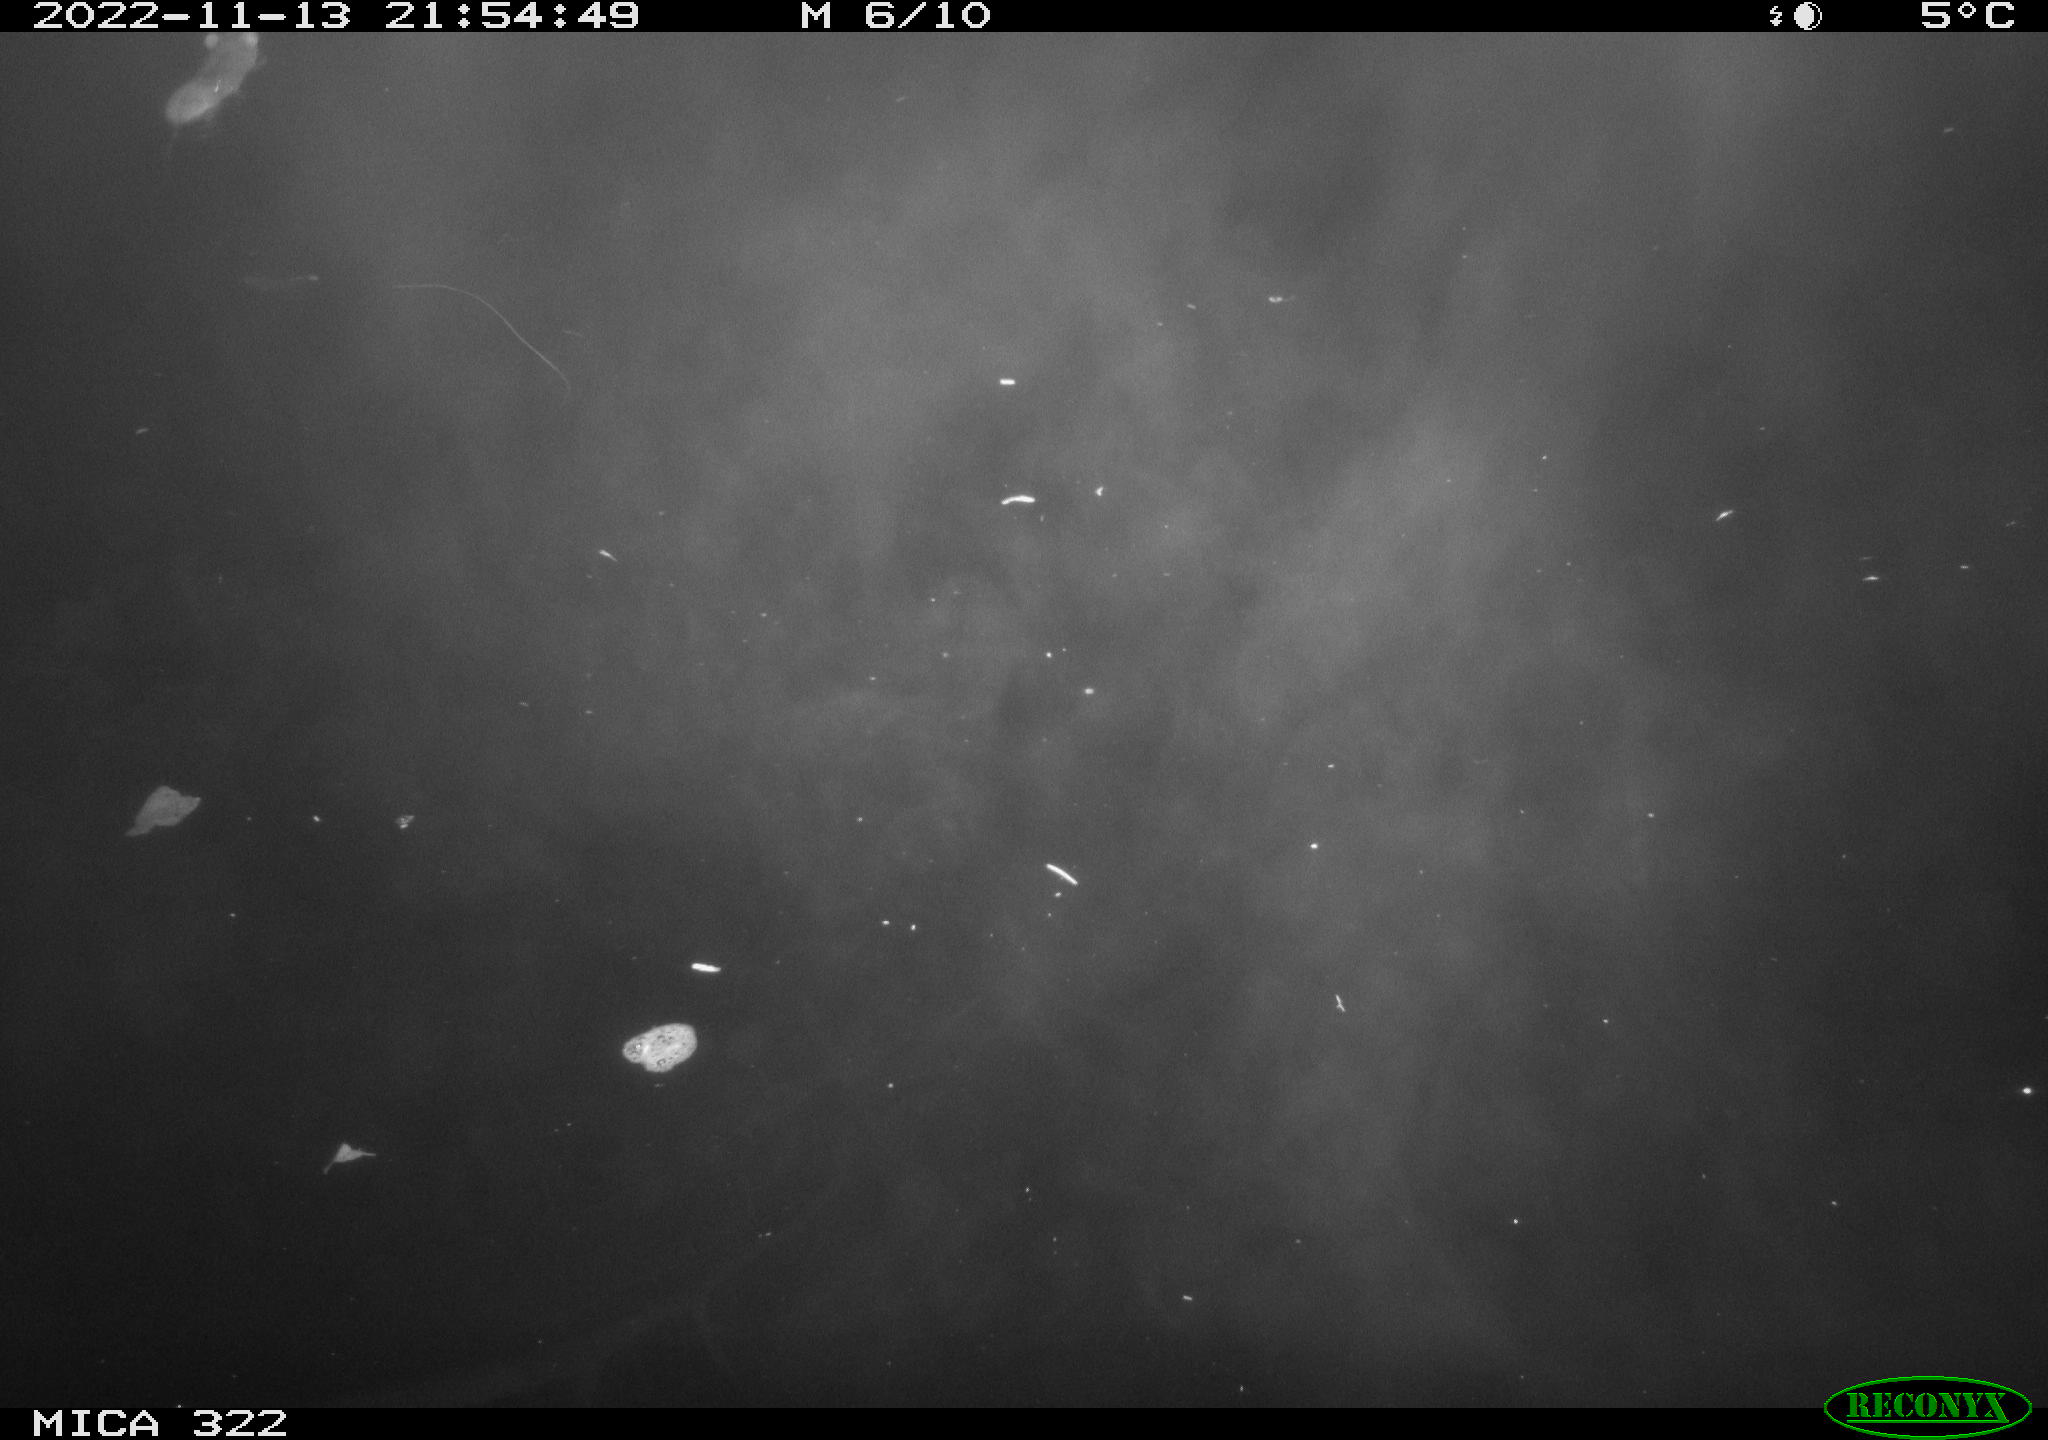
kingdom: Animalia
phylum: Chordata
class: Mammalia
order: Rodentia
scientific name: Rodentia
